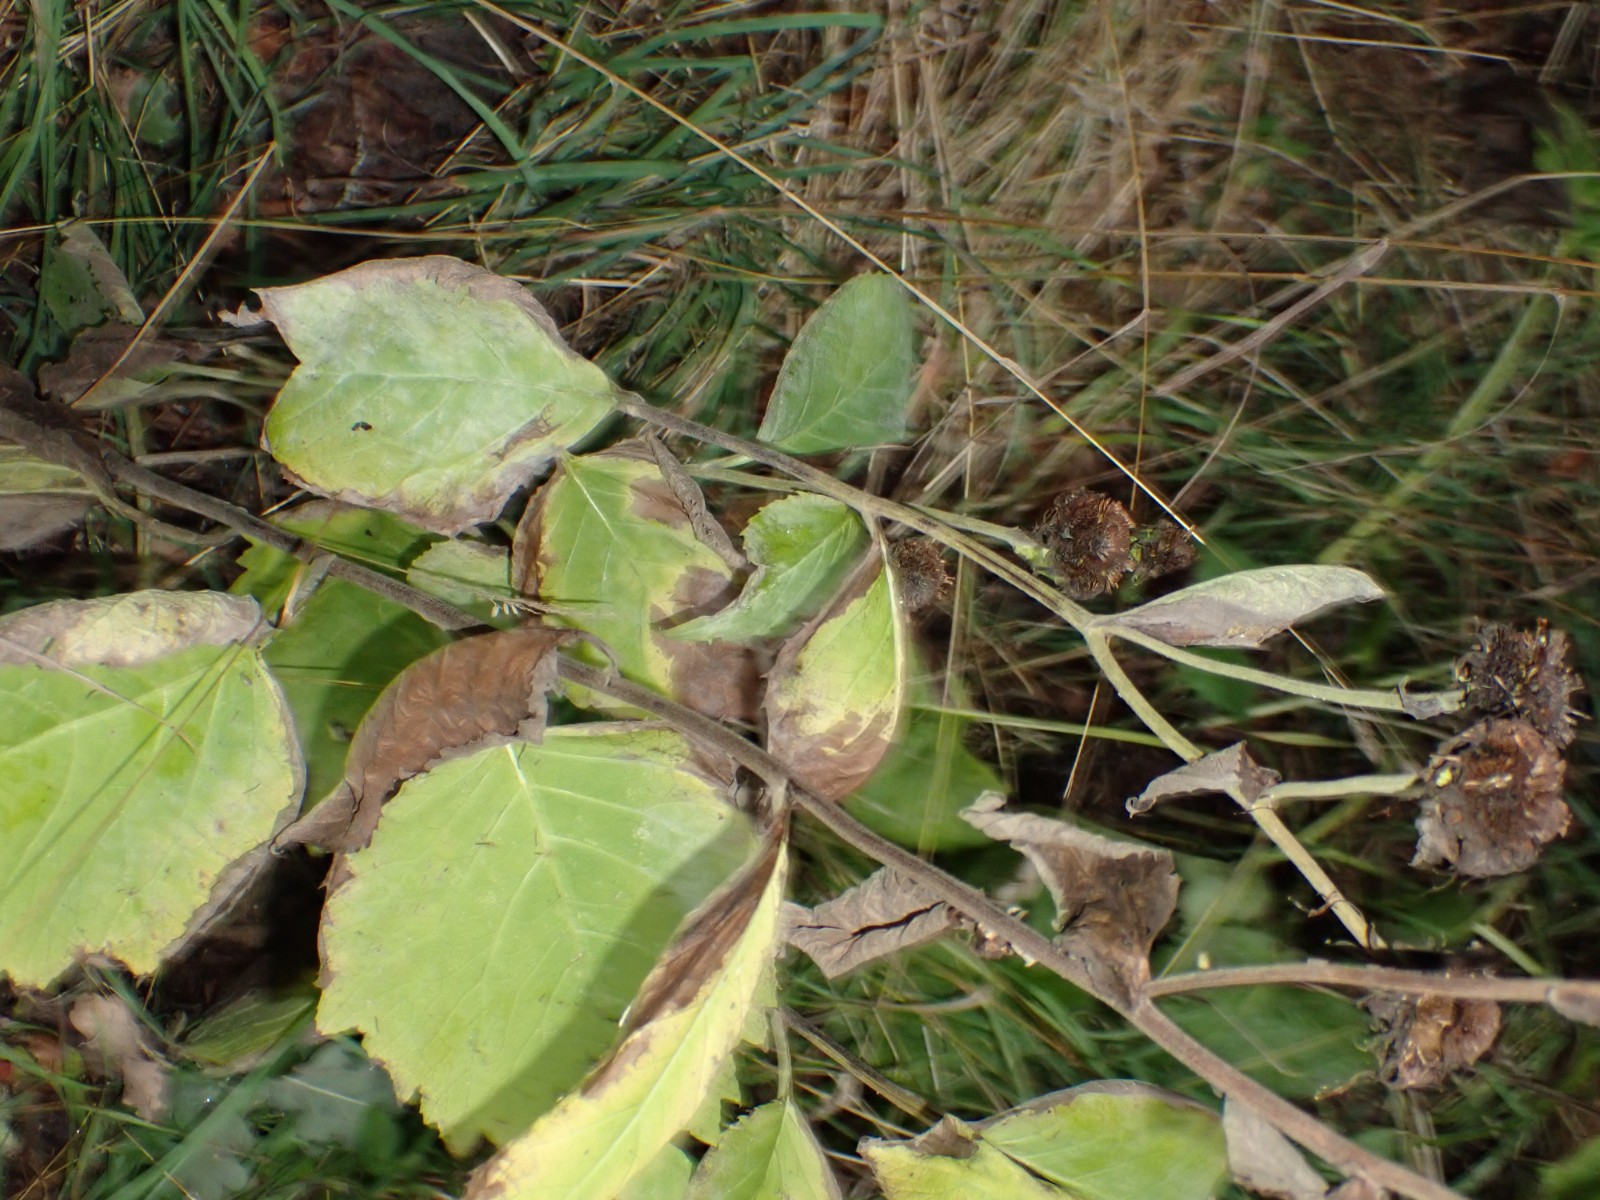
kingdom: Fungi
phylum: Ascomycota
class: Leotiomycetes
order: Helotiales
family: Erysiphaceae
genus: Golovinomyces
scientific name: Golovinomyces inulae
